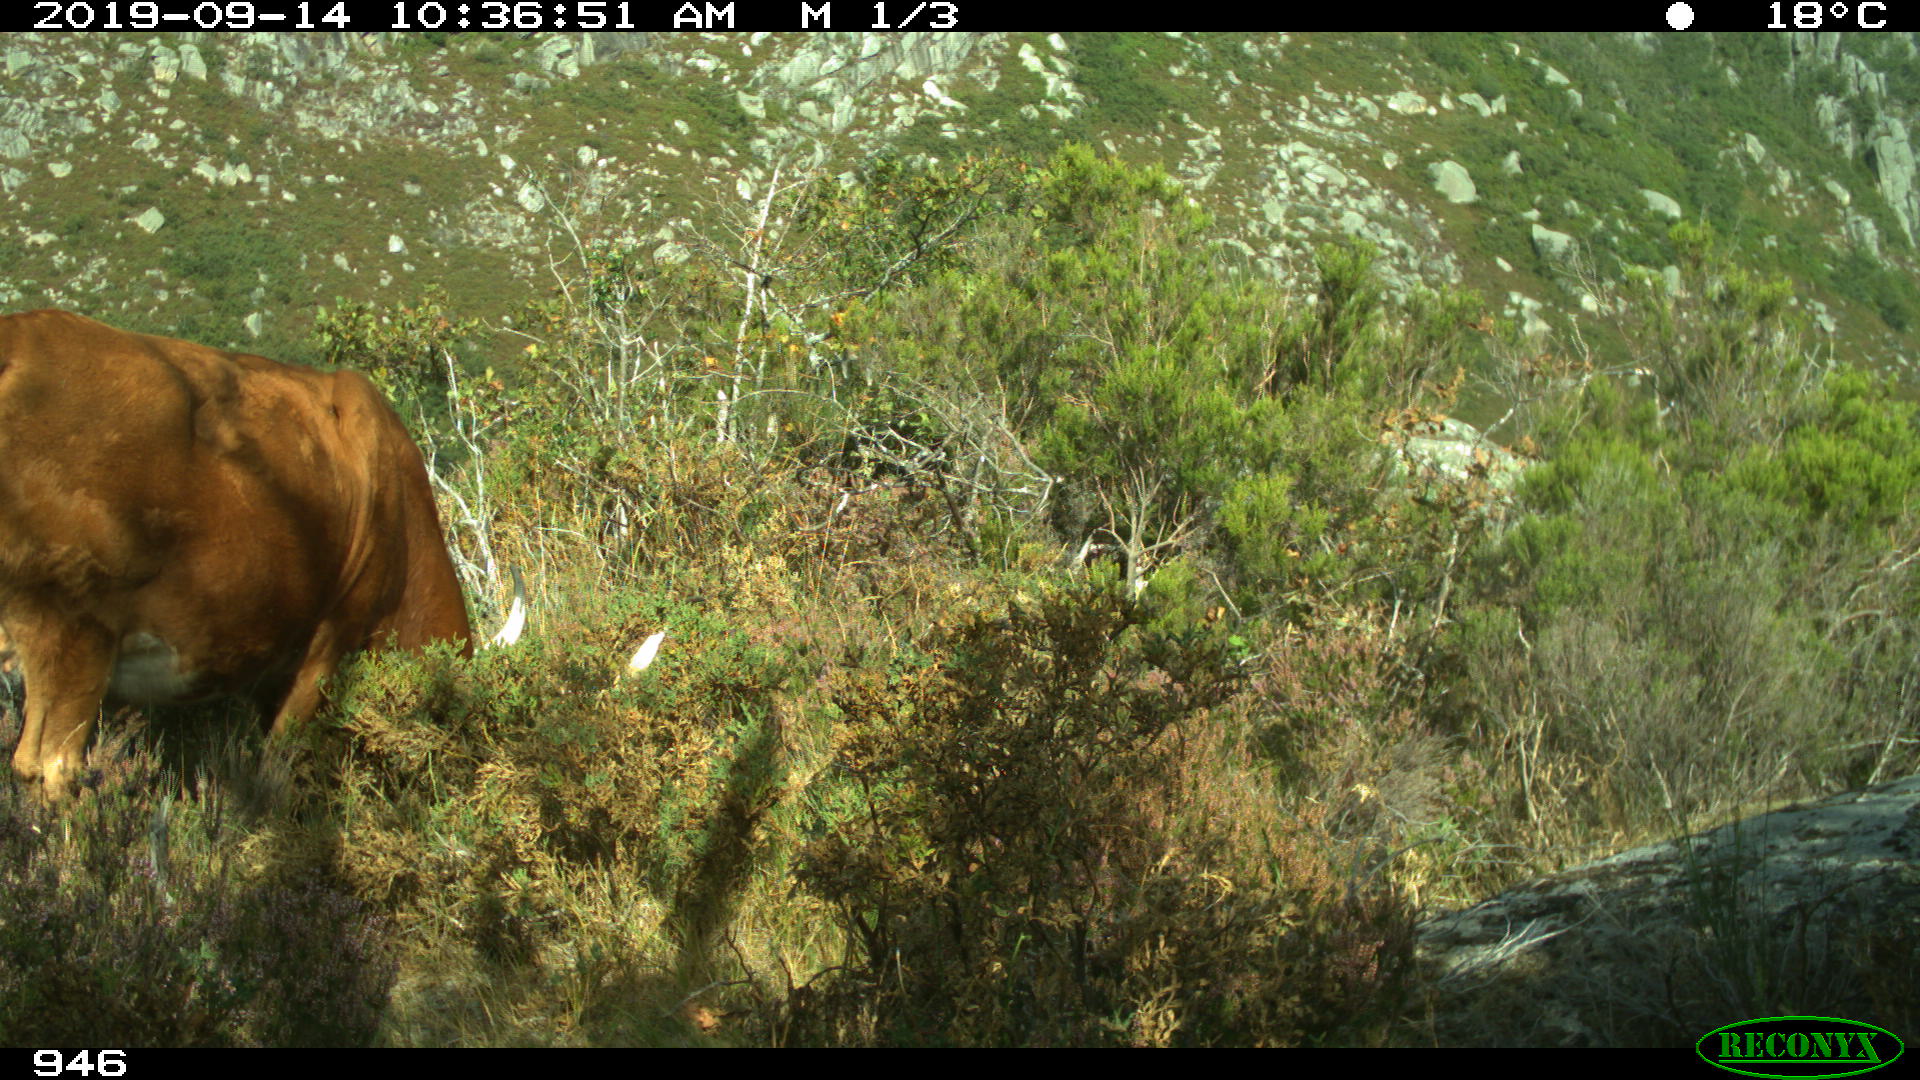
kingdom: Animalia
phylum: Chordata
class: Mammalia
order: Artiodactyla
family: Bovidae
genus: Bos
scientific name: Bos taurus
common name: Domesticated cattle
